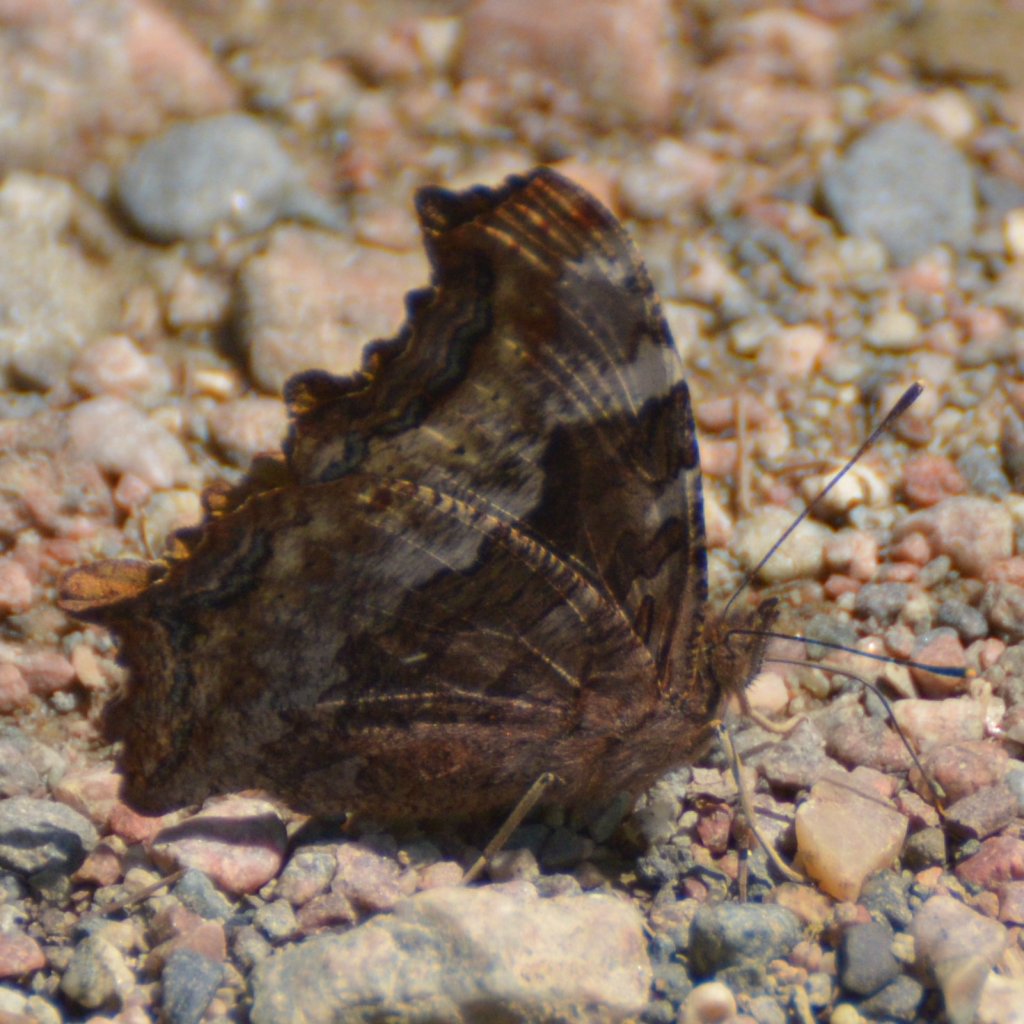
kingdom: Animalia
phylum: Arthropoda
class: Insecta
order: Lepidoptera
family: Nymphalidae
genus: Polygonia
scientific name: Polygonia vaualbum
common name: Compton Tortoiseshell
